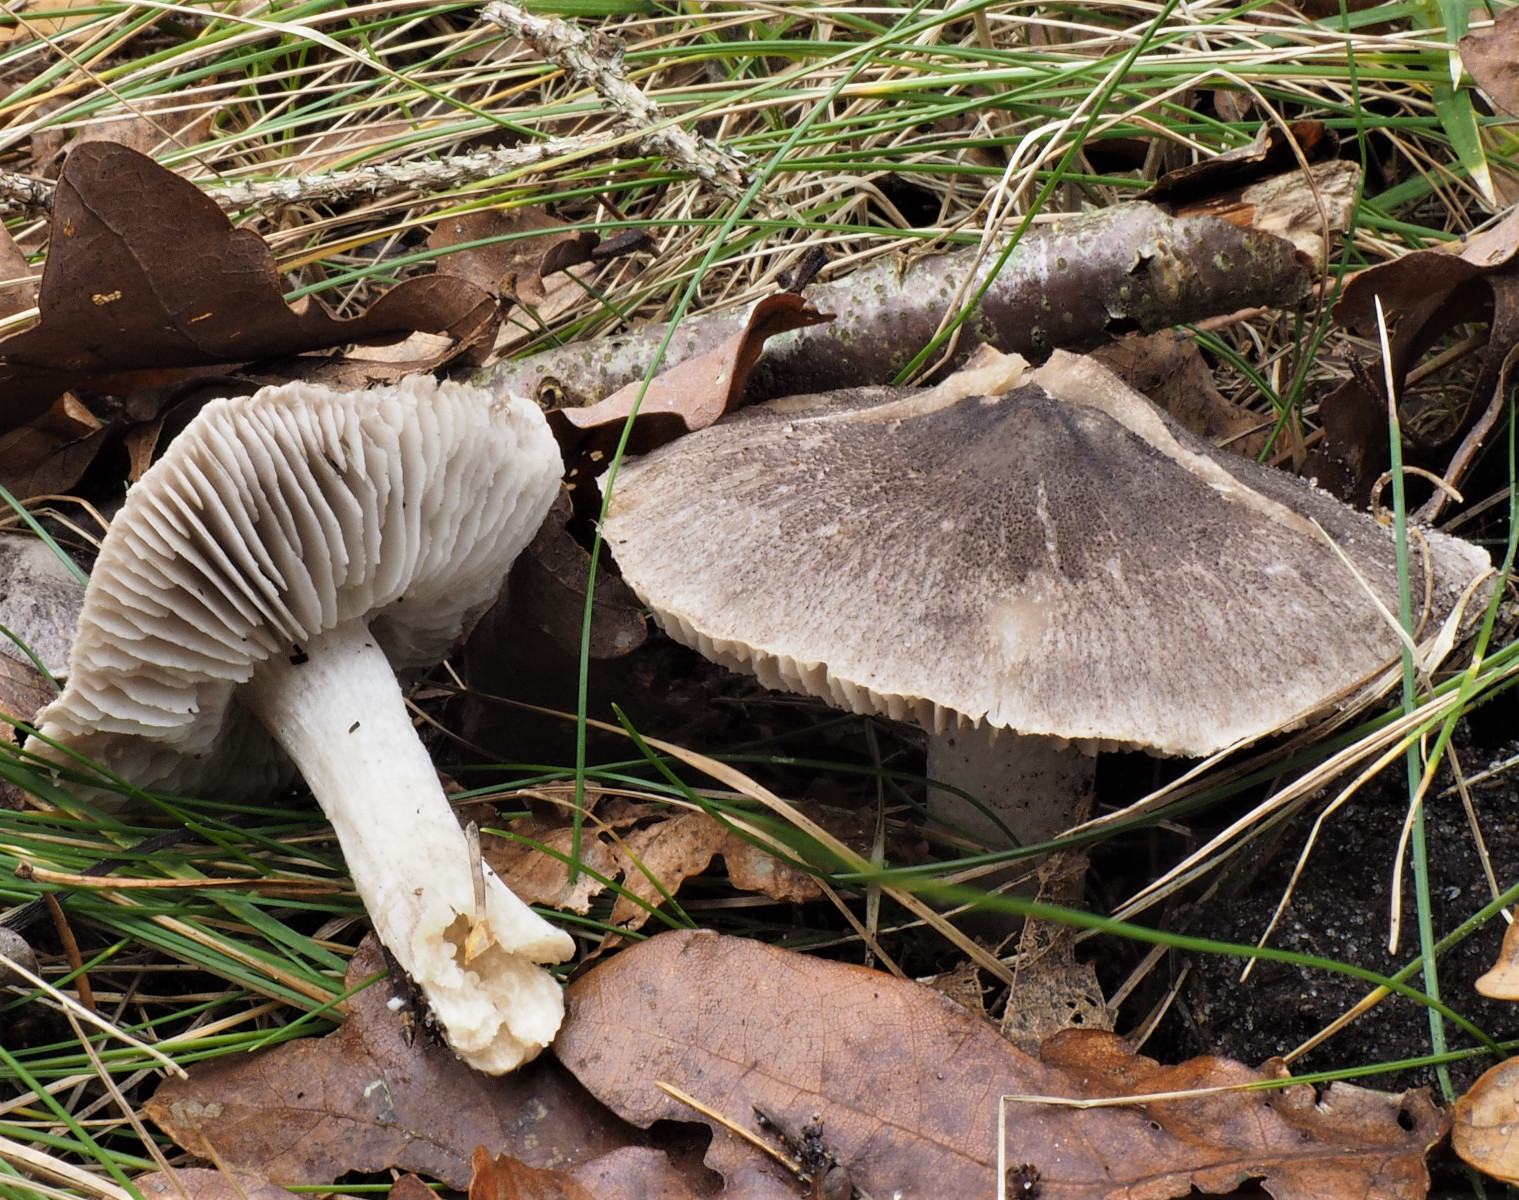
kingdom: Fungi
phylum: Basidiomycota
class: Agaricomycetes
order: Agaricales
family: Tricholomataceae
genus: Tricholoma
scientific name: Tricholoma terreum
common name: jordfarvet ridderhat
